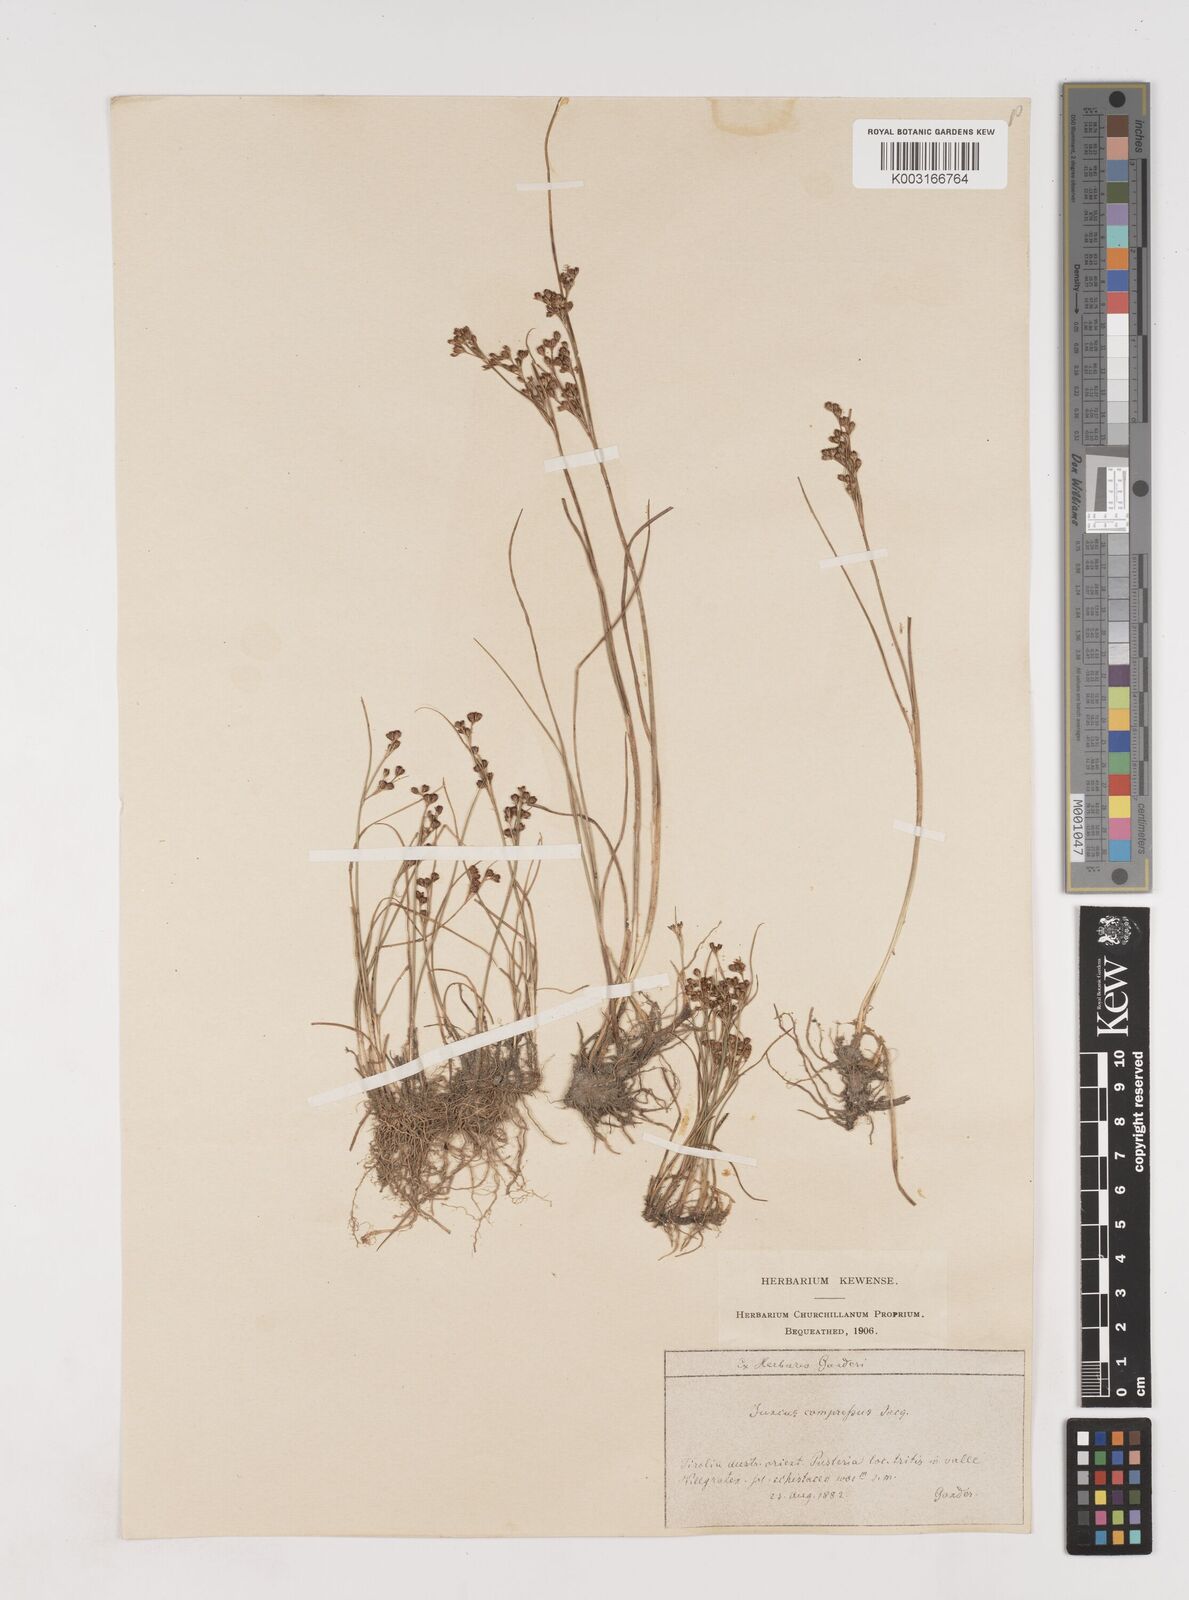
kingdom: Plantae
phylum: Tracheophyta
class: Liliopsida
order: Poales
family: Juncaceae
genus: Juncus
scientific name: Juncus
